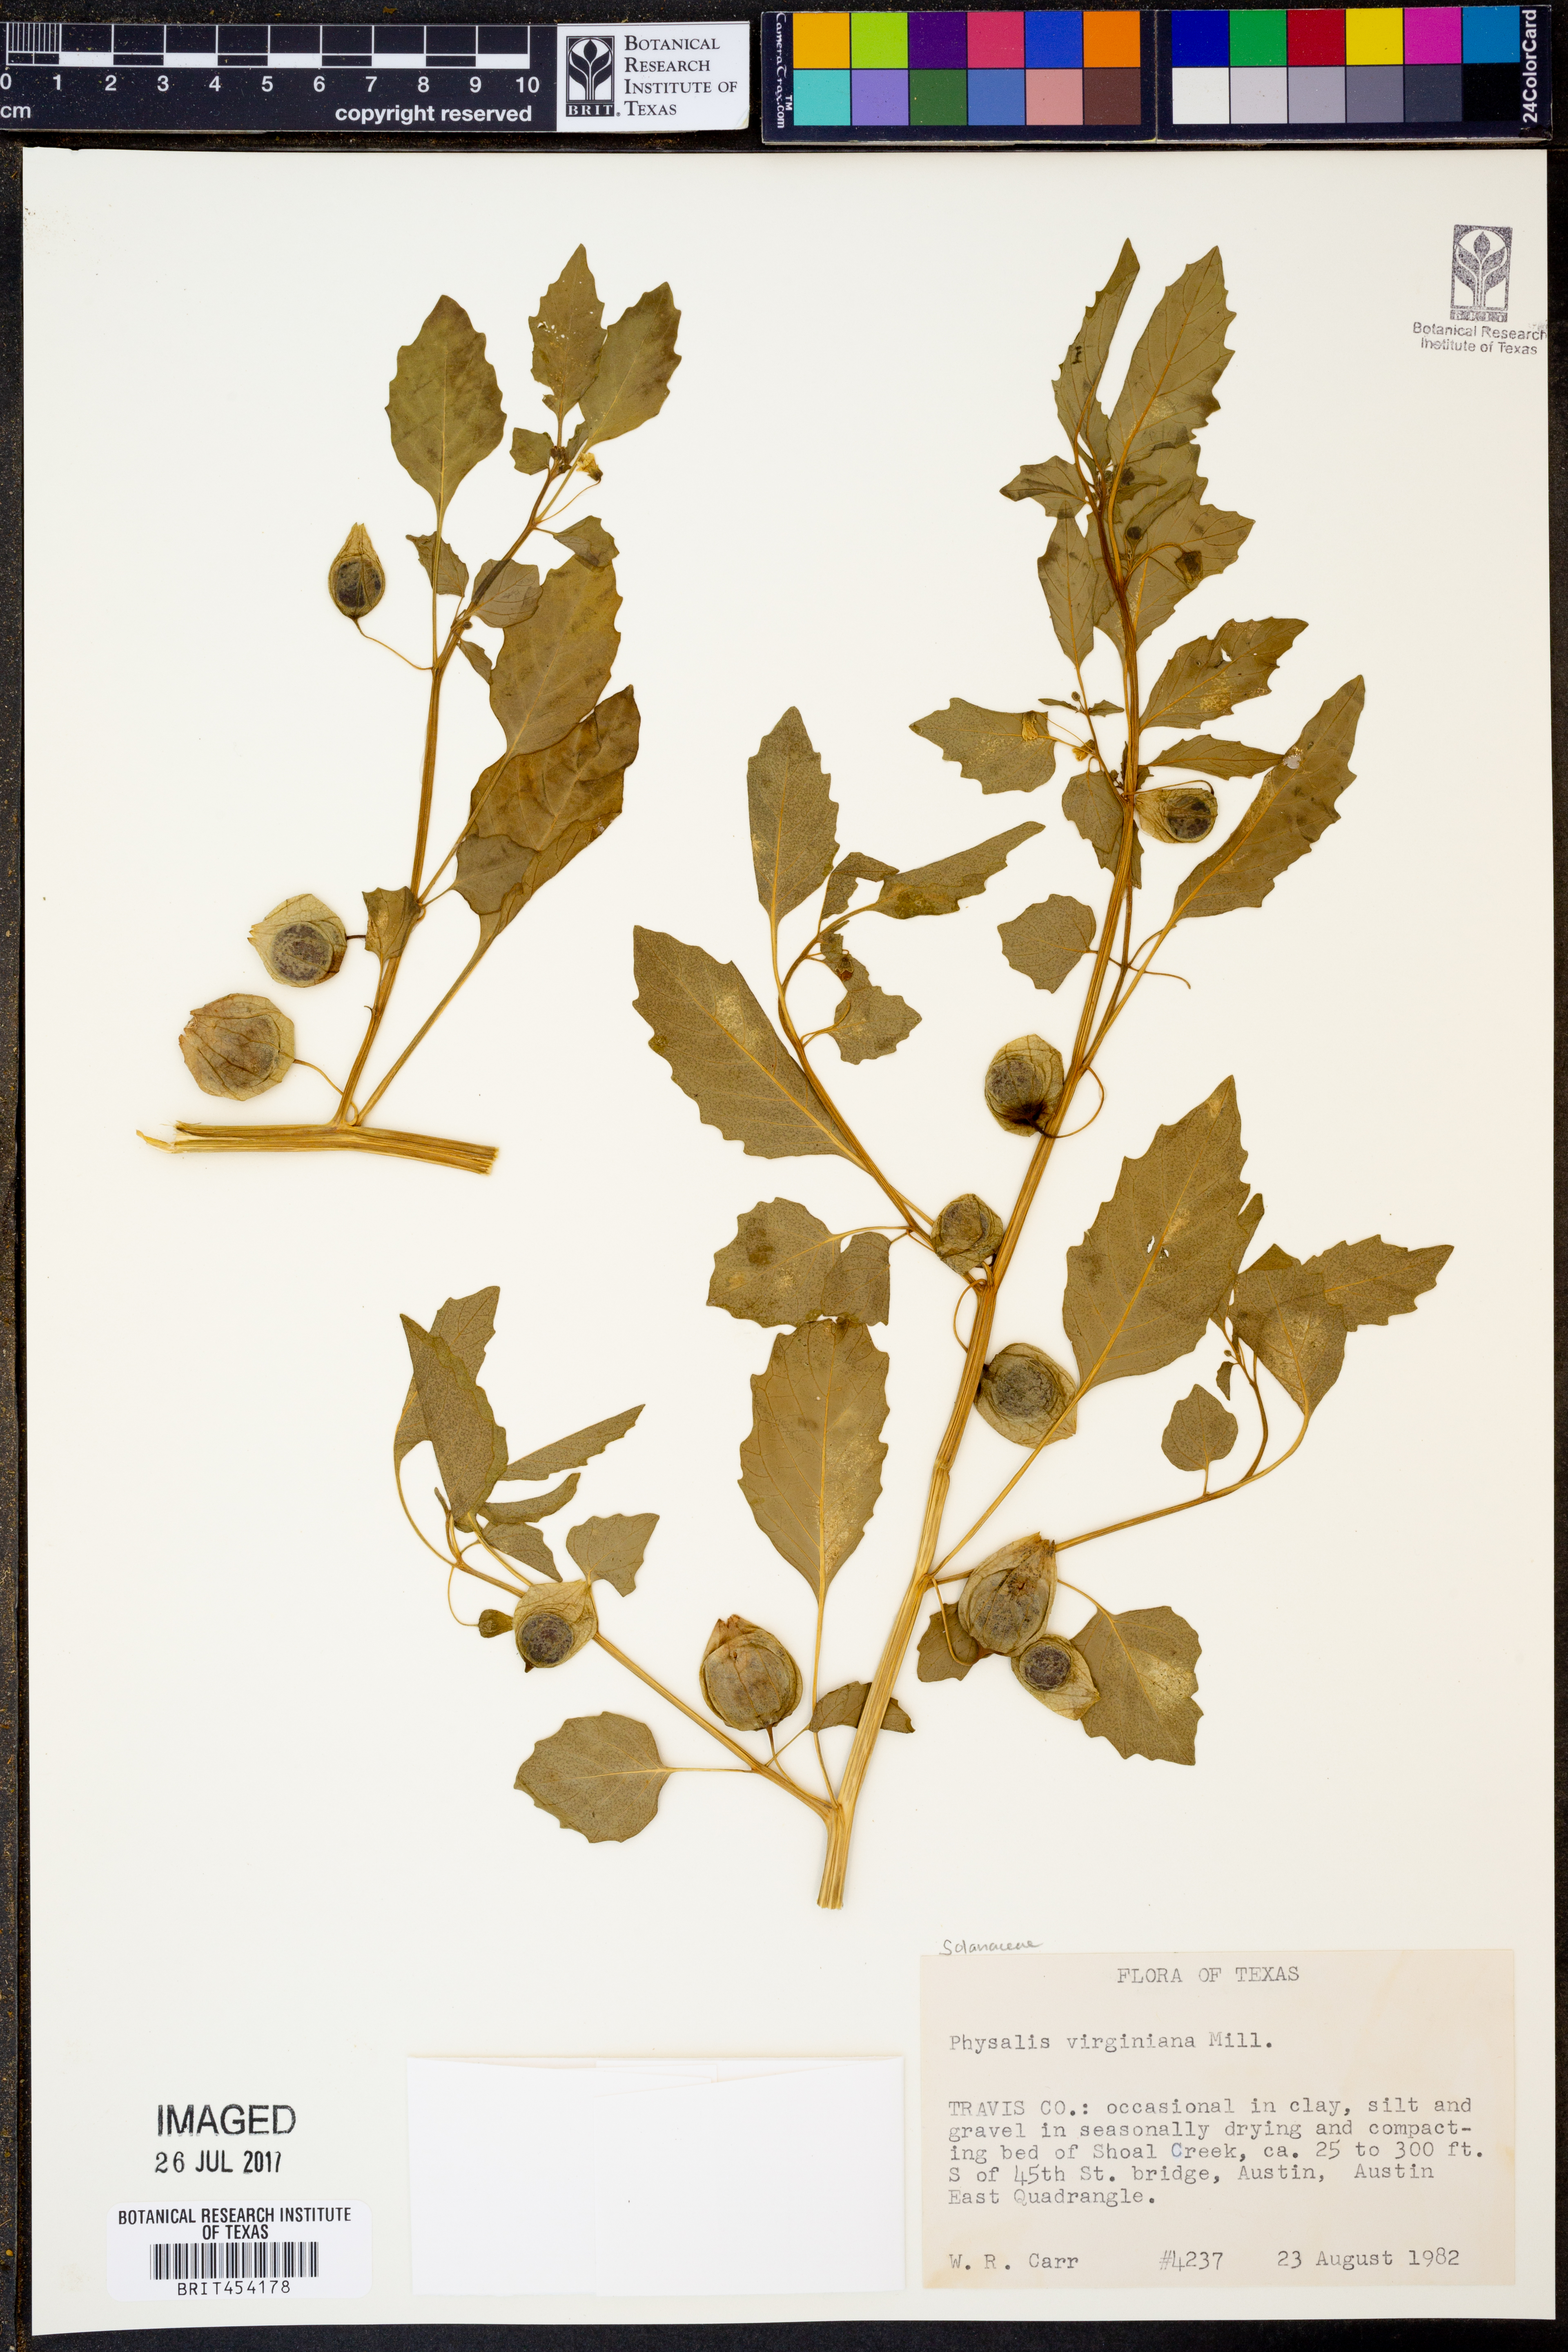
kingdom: Plantae
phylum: Tracheophyta
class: Magnoliopsida
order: Solanales
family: Solanaceae
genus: Physalis
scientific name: Physalis virginiana
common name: Virginia ground-cherry
